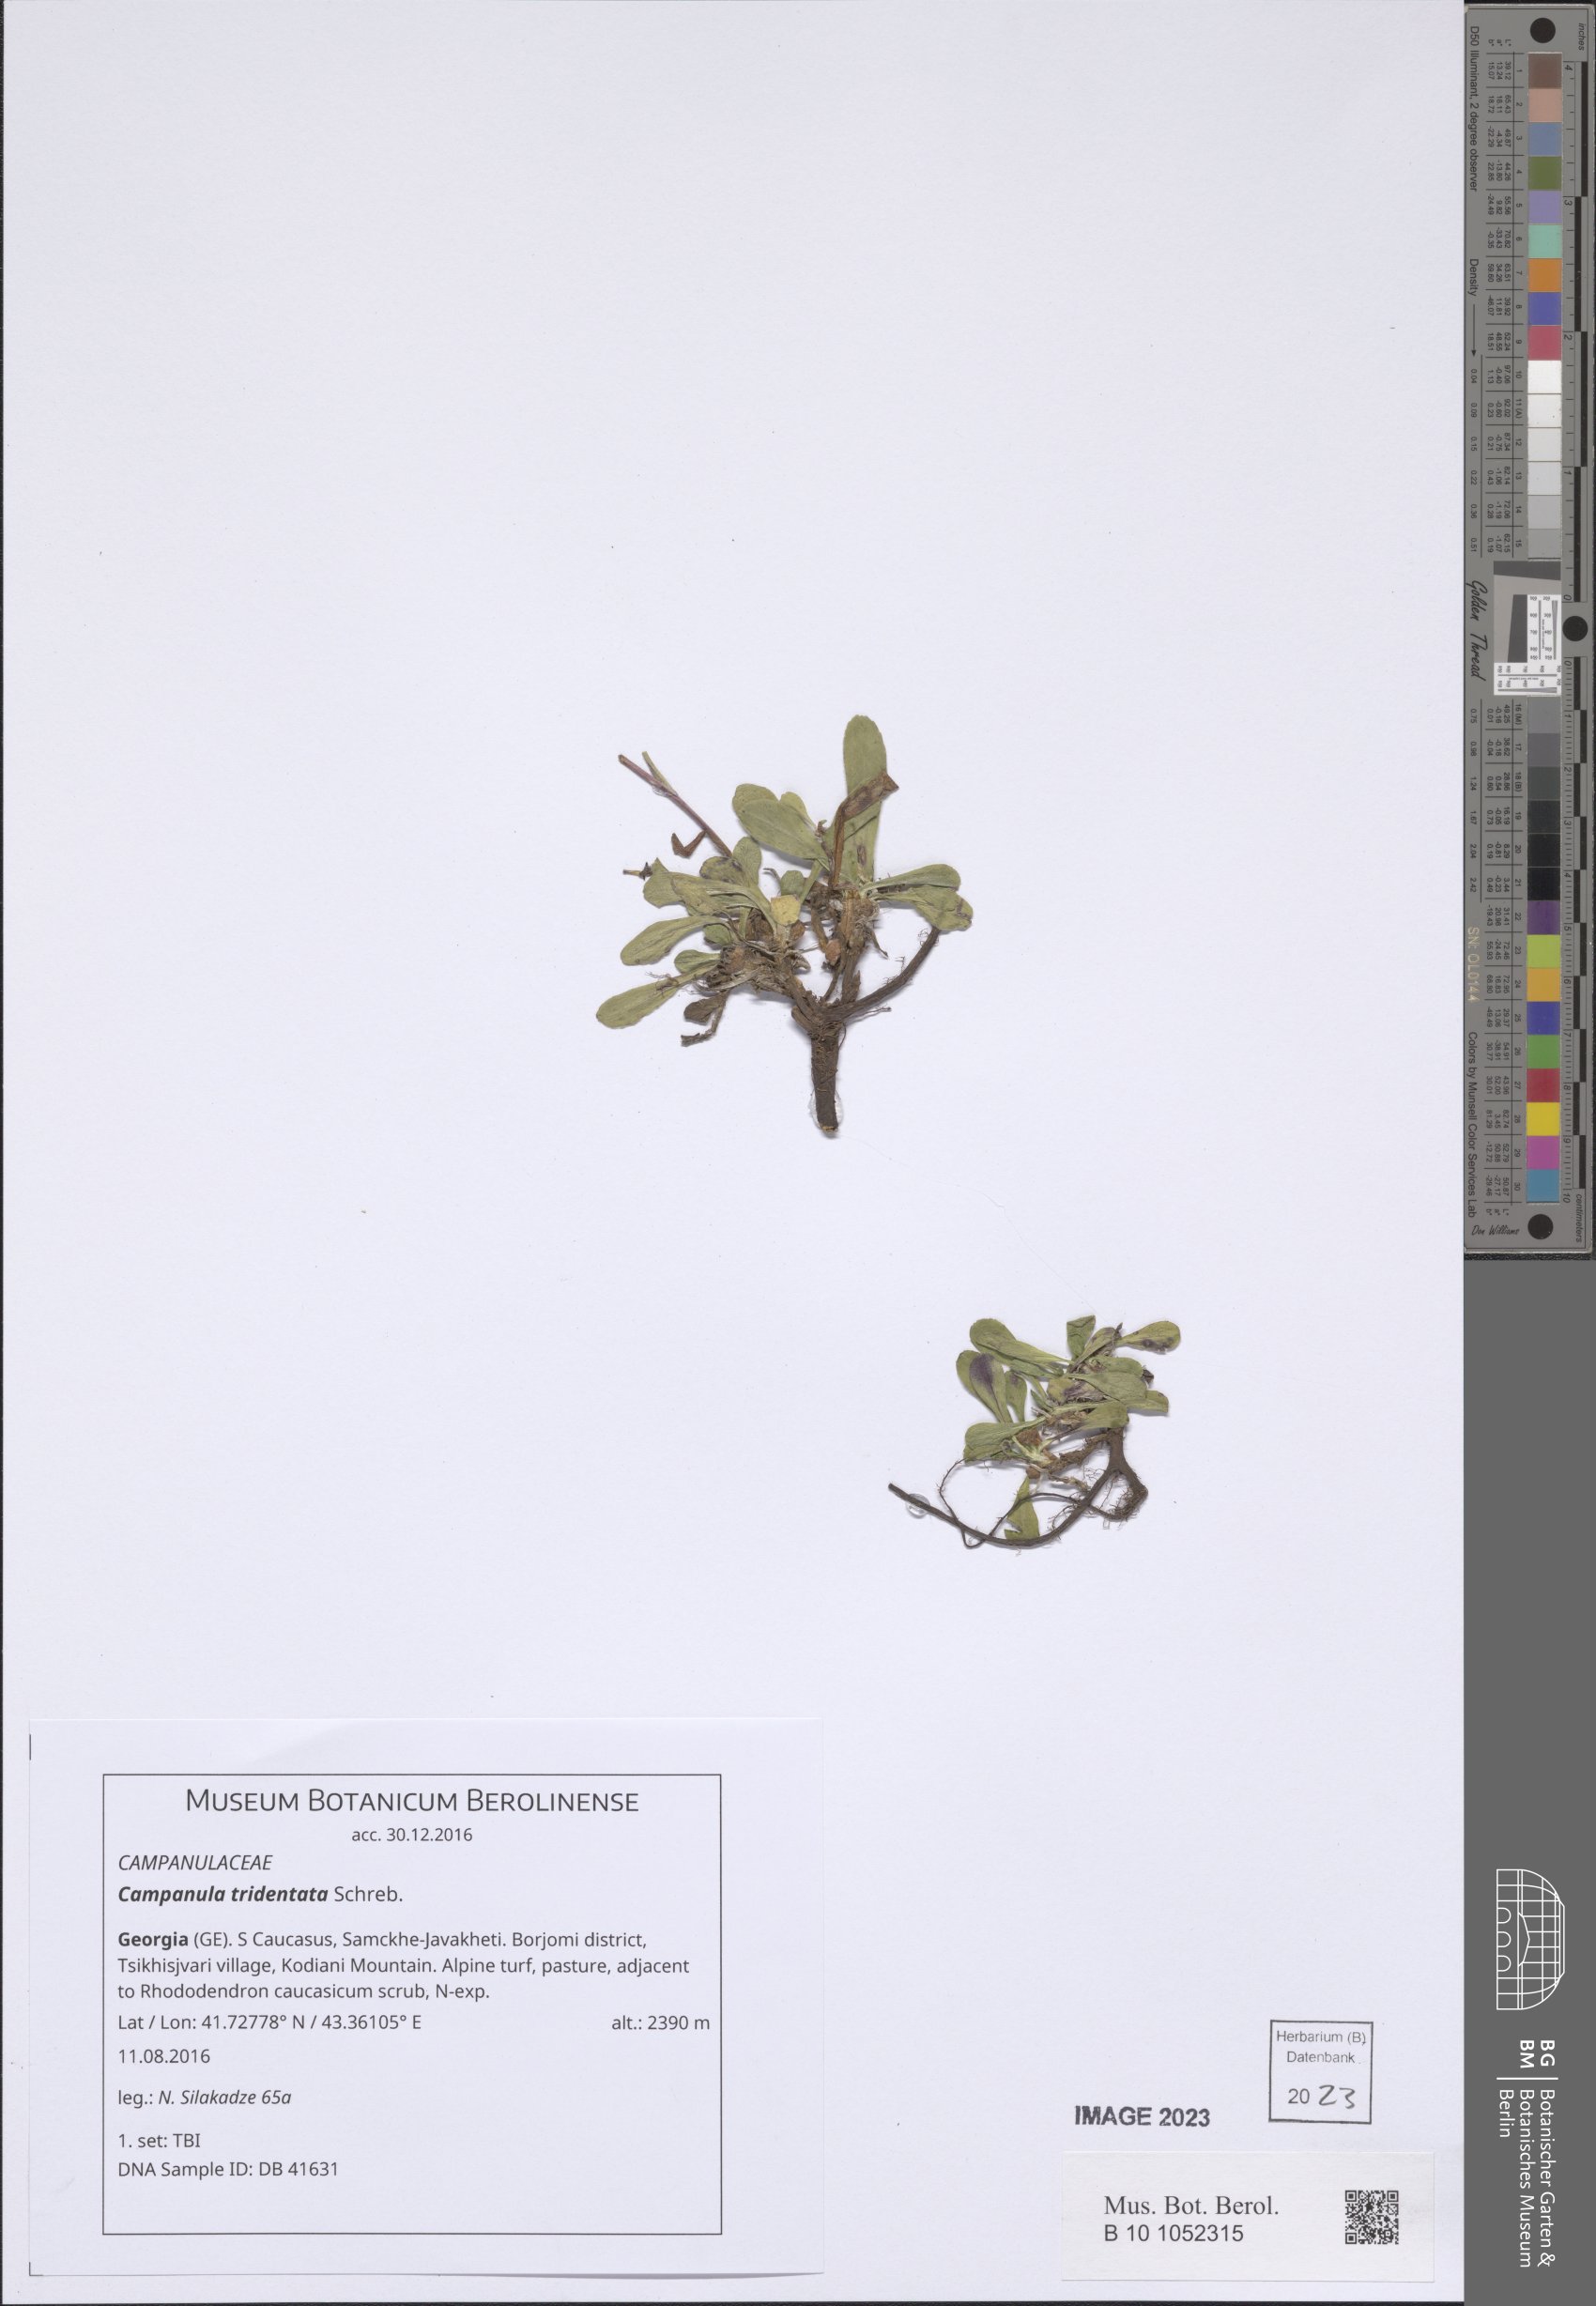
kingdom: Plantae
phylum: Tracheophyta
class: Magnoliopsida
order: Asterales
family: Campanulaceae
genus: Campanula
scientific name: Campanula tridentata
